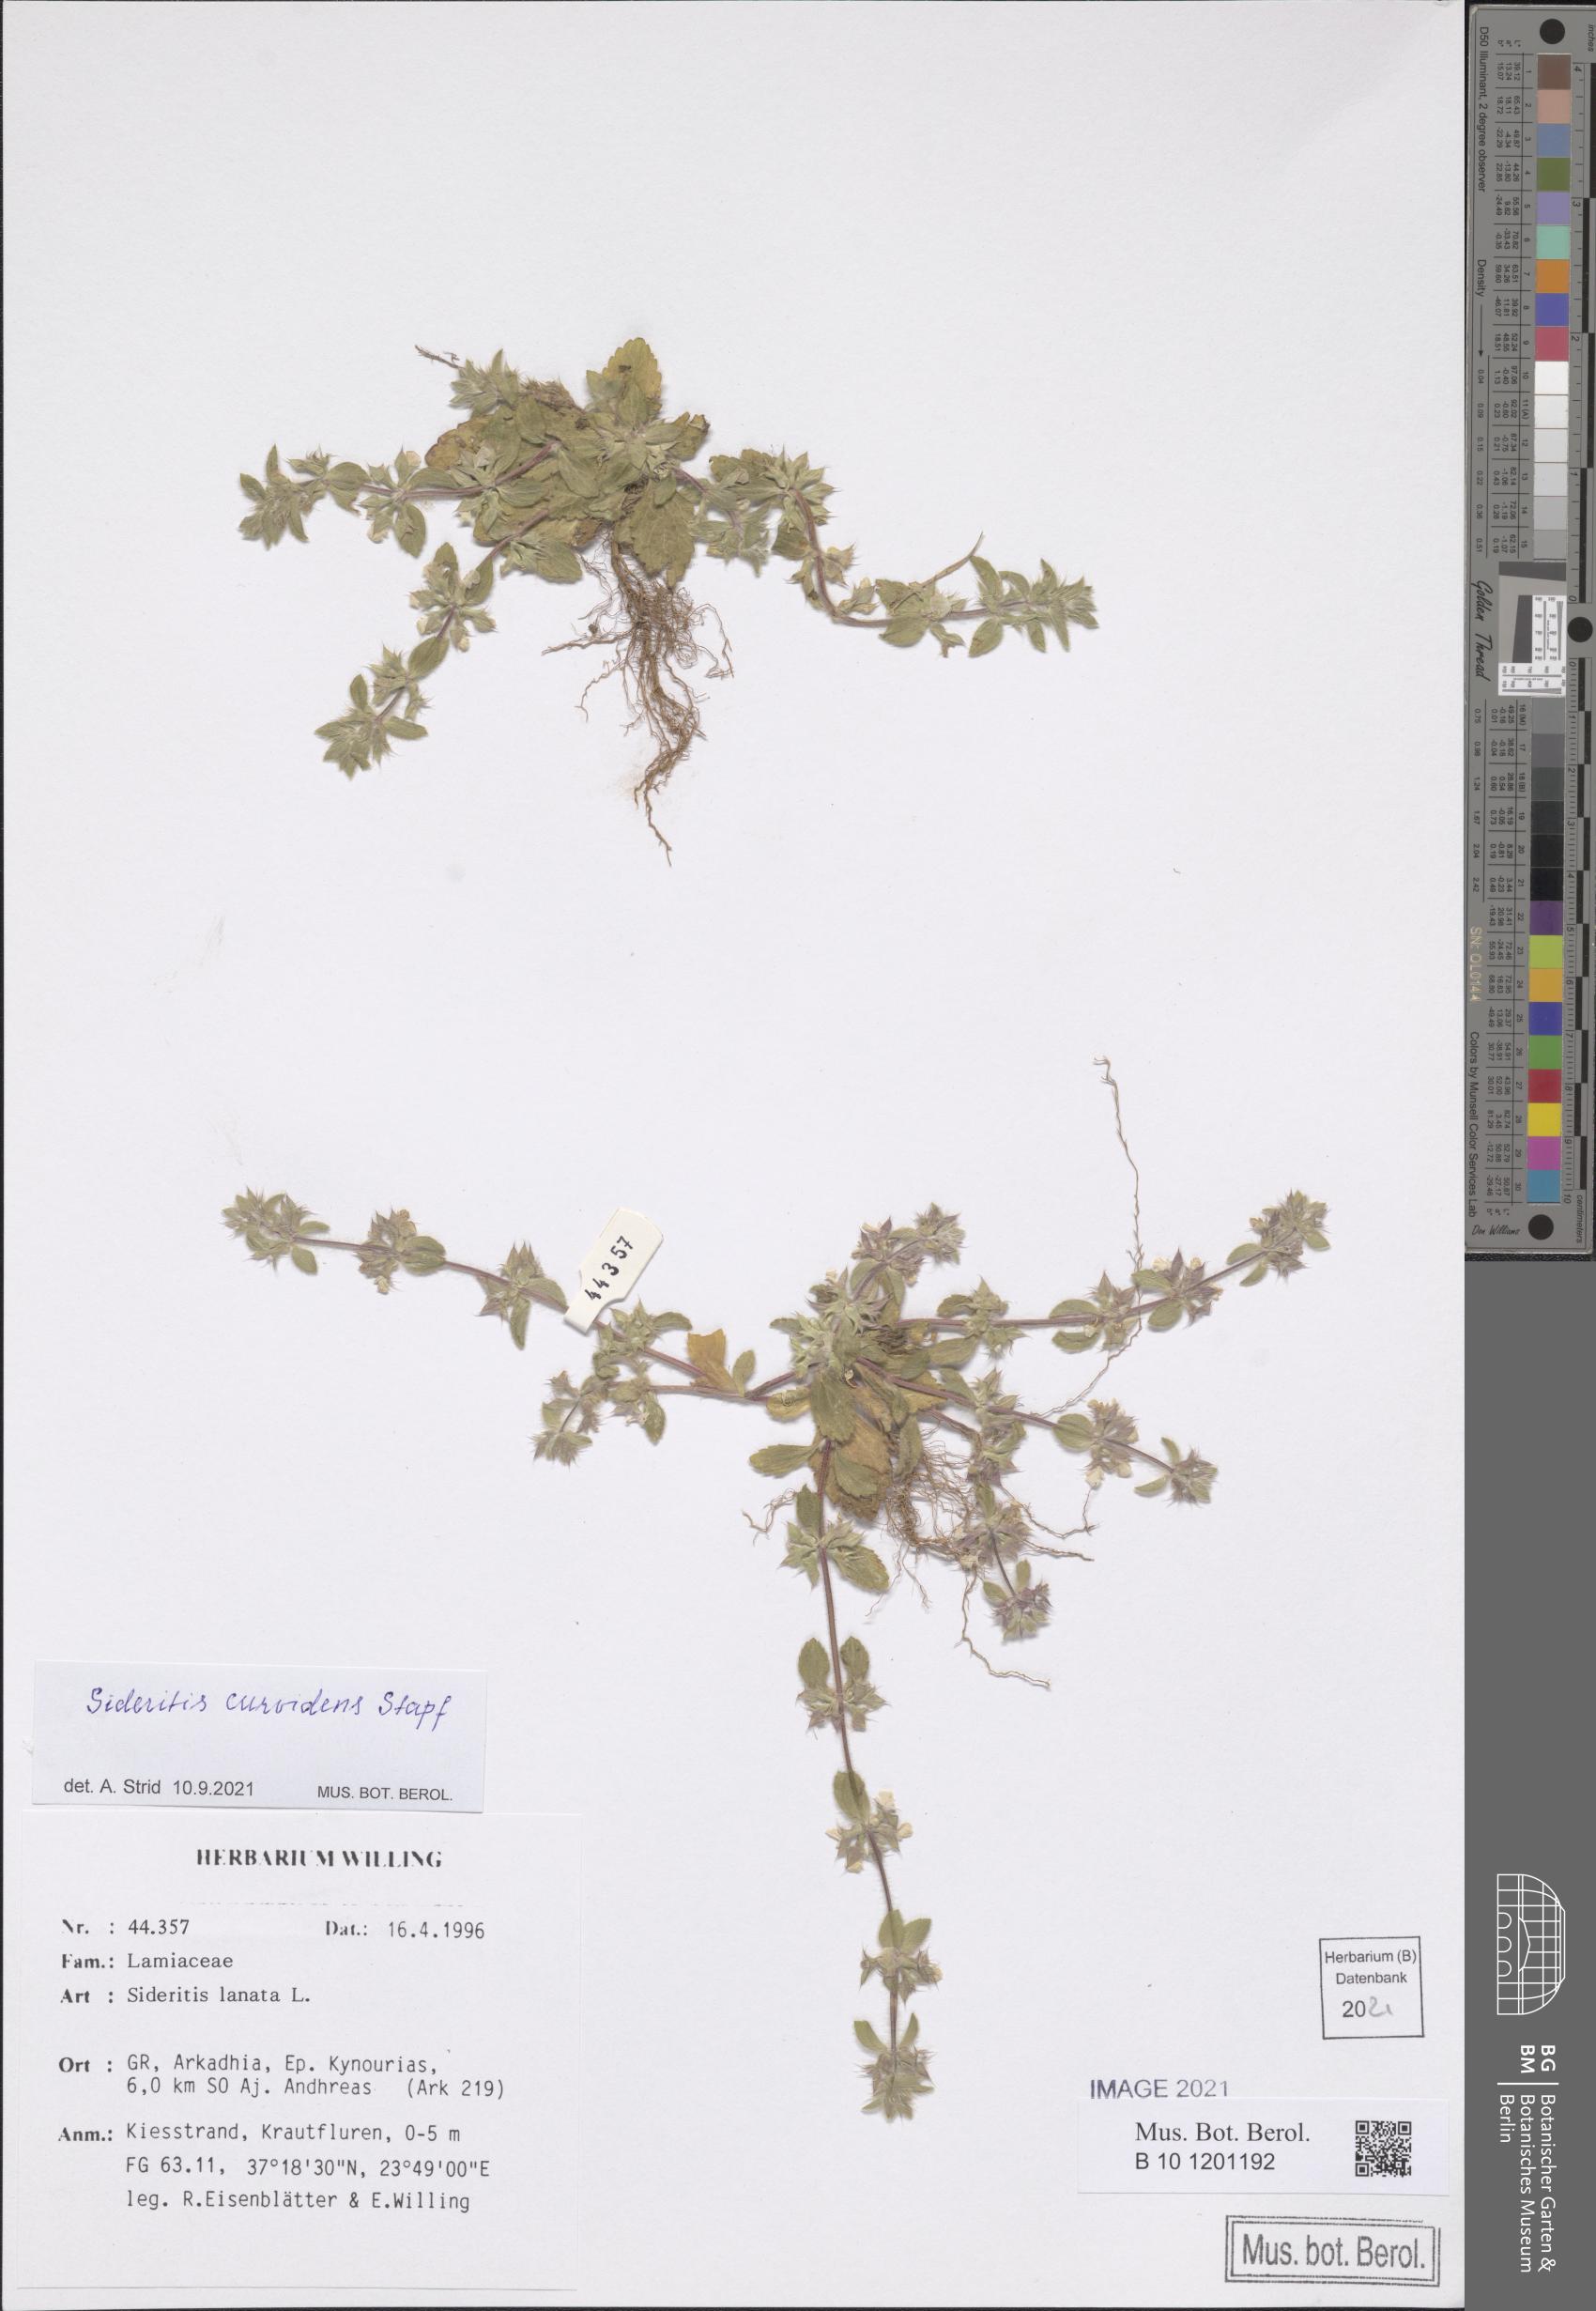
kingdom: Plantae
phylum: Tracheophyta
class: Magnoliopsida
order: Lamiales
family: Lamiaceae
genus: Sideritis
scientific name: Sideritis romana
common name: Simplebeak ironwort
